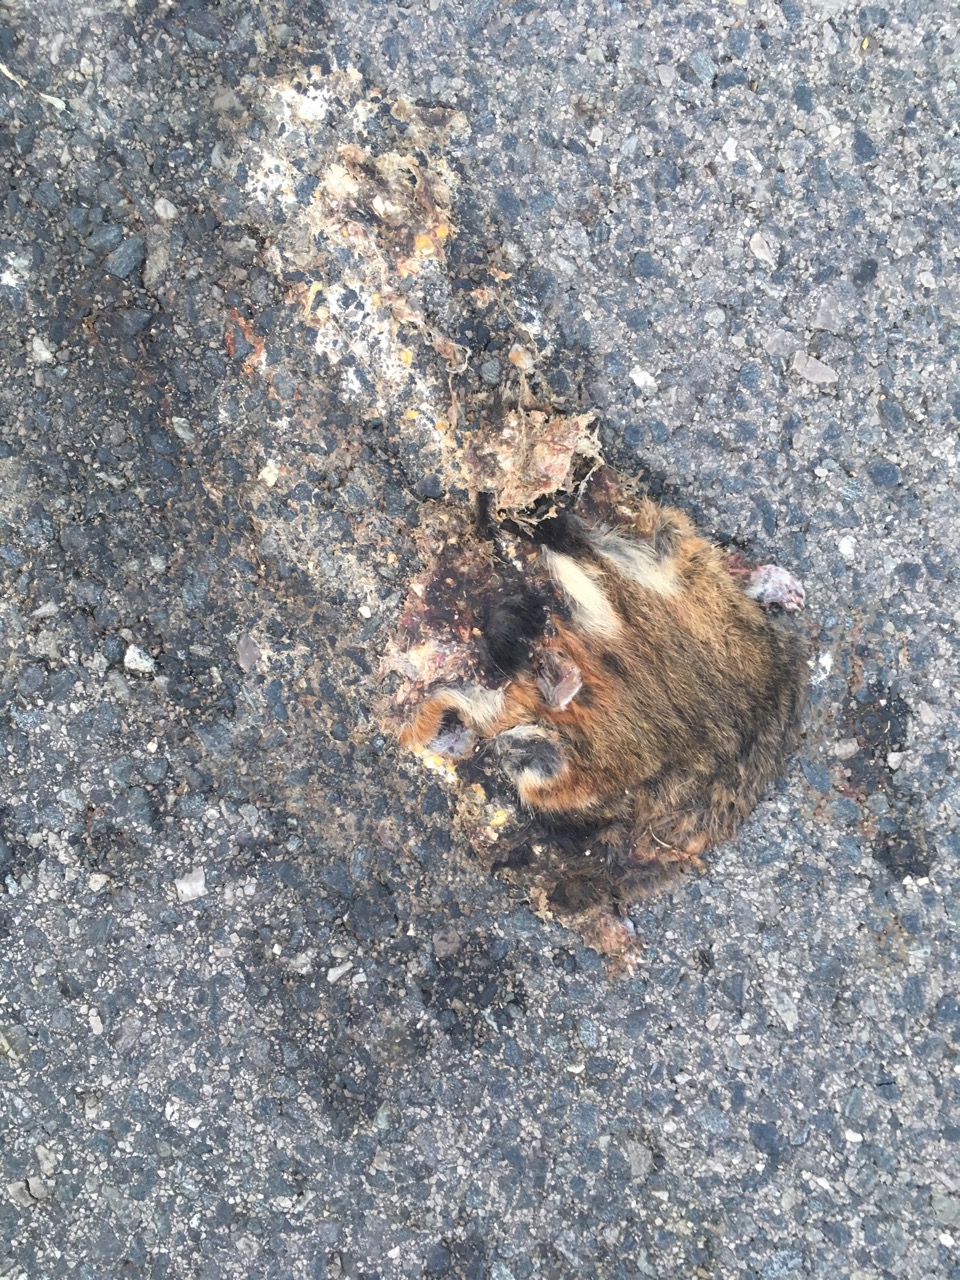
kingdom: Animalia
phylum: Chordata
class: Mammalia
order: Rodentia
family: Cricetidae
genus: Cricetus
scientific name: Cricetus cricetus
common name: Common hamster
